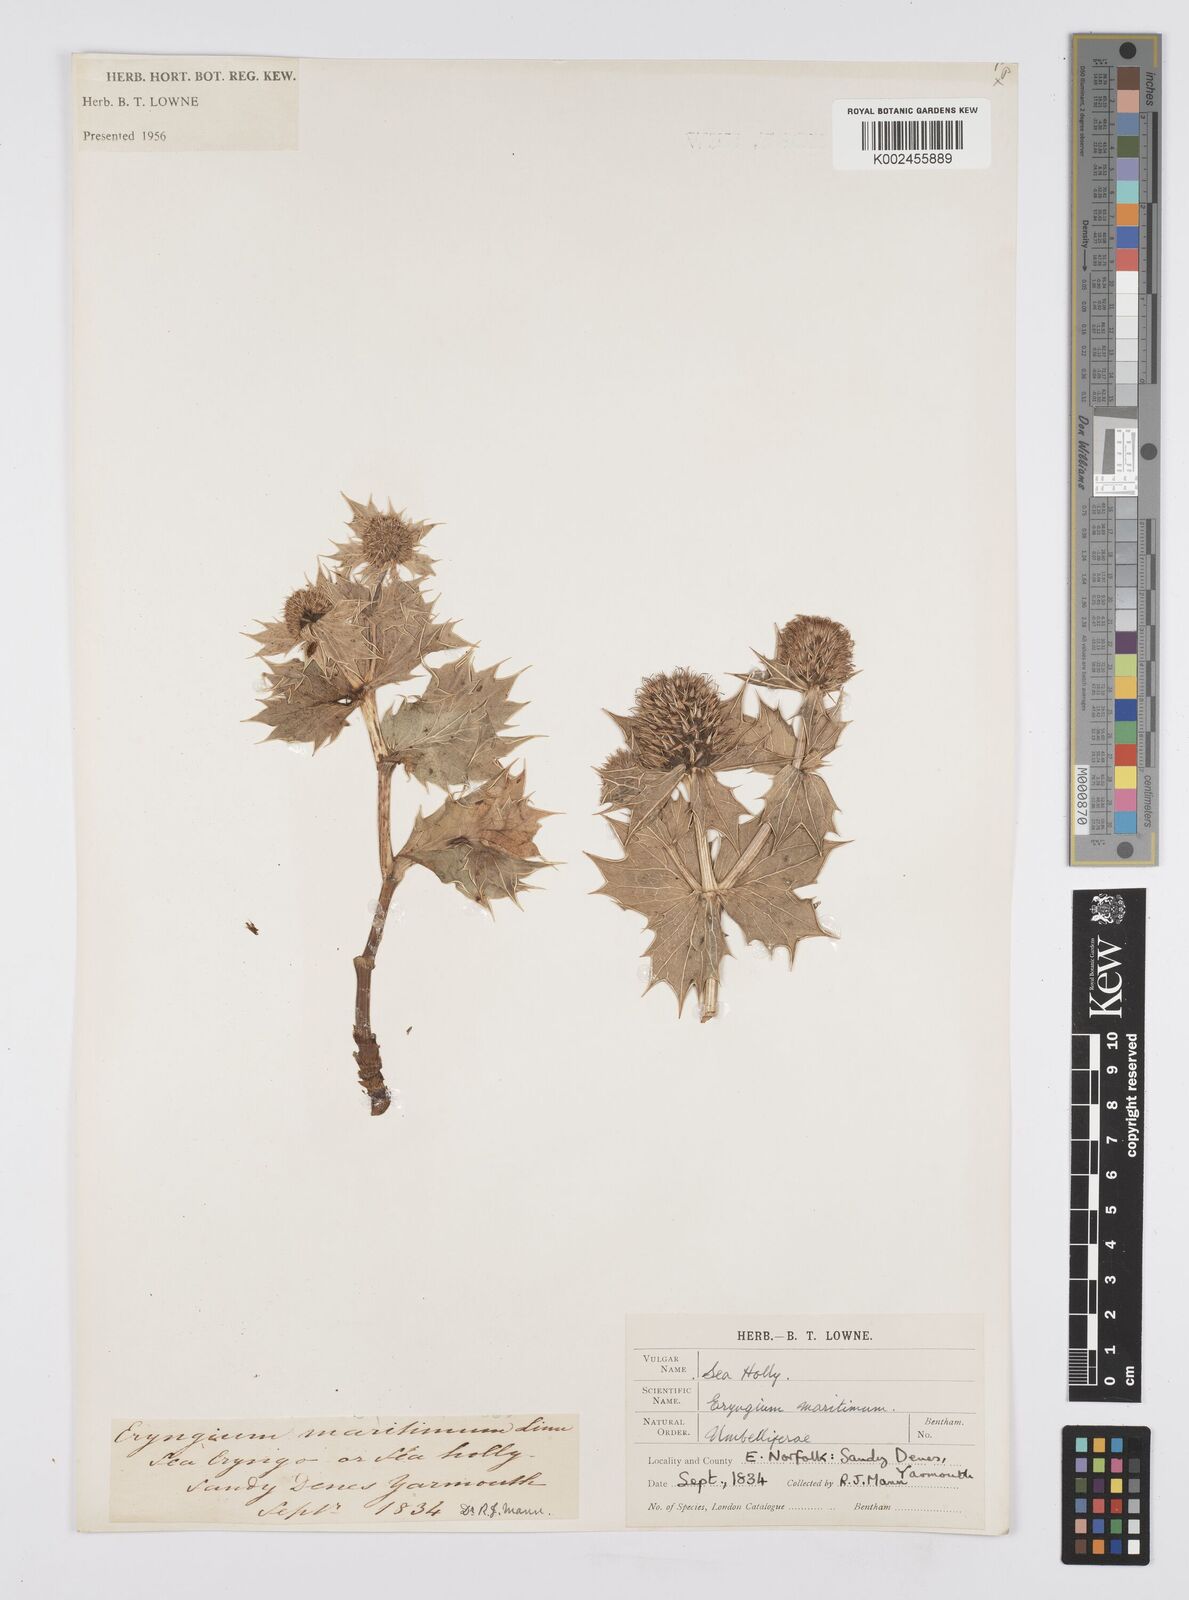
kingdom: Plantae
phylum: Tracheophyta
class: Magnoliopsida
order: Apiales
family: Apiaceae
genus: Eryngium
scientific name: Eryngium maritimum
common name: Sea-holly
